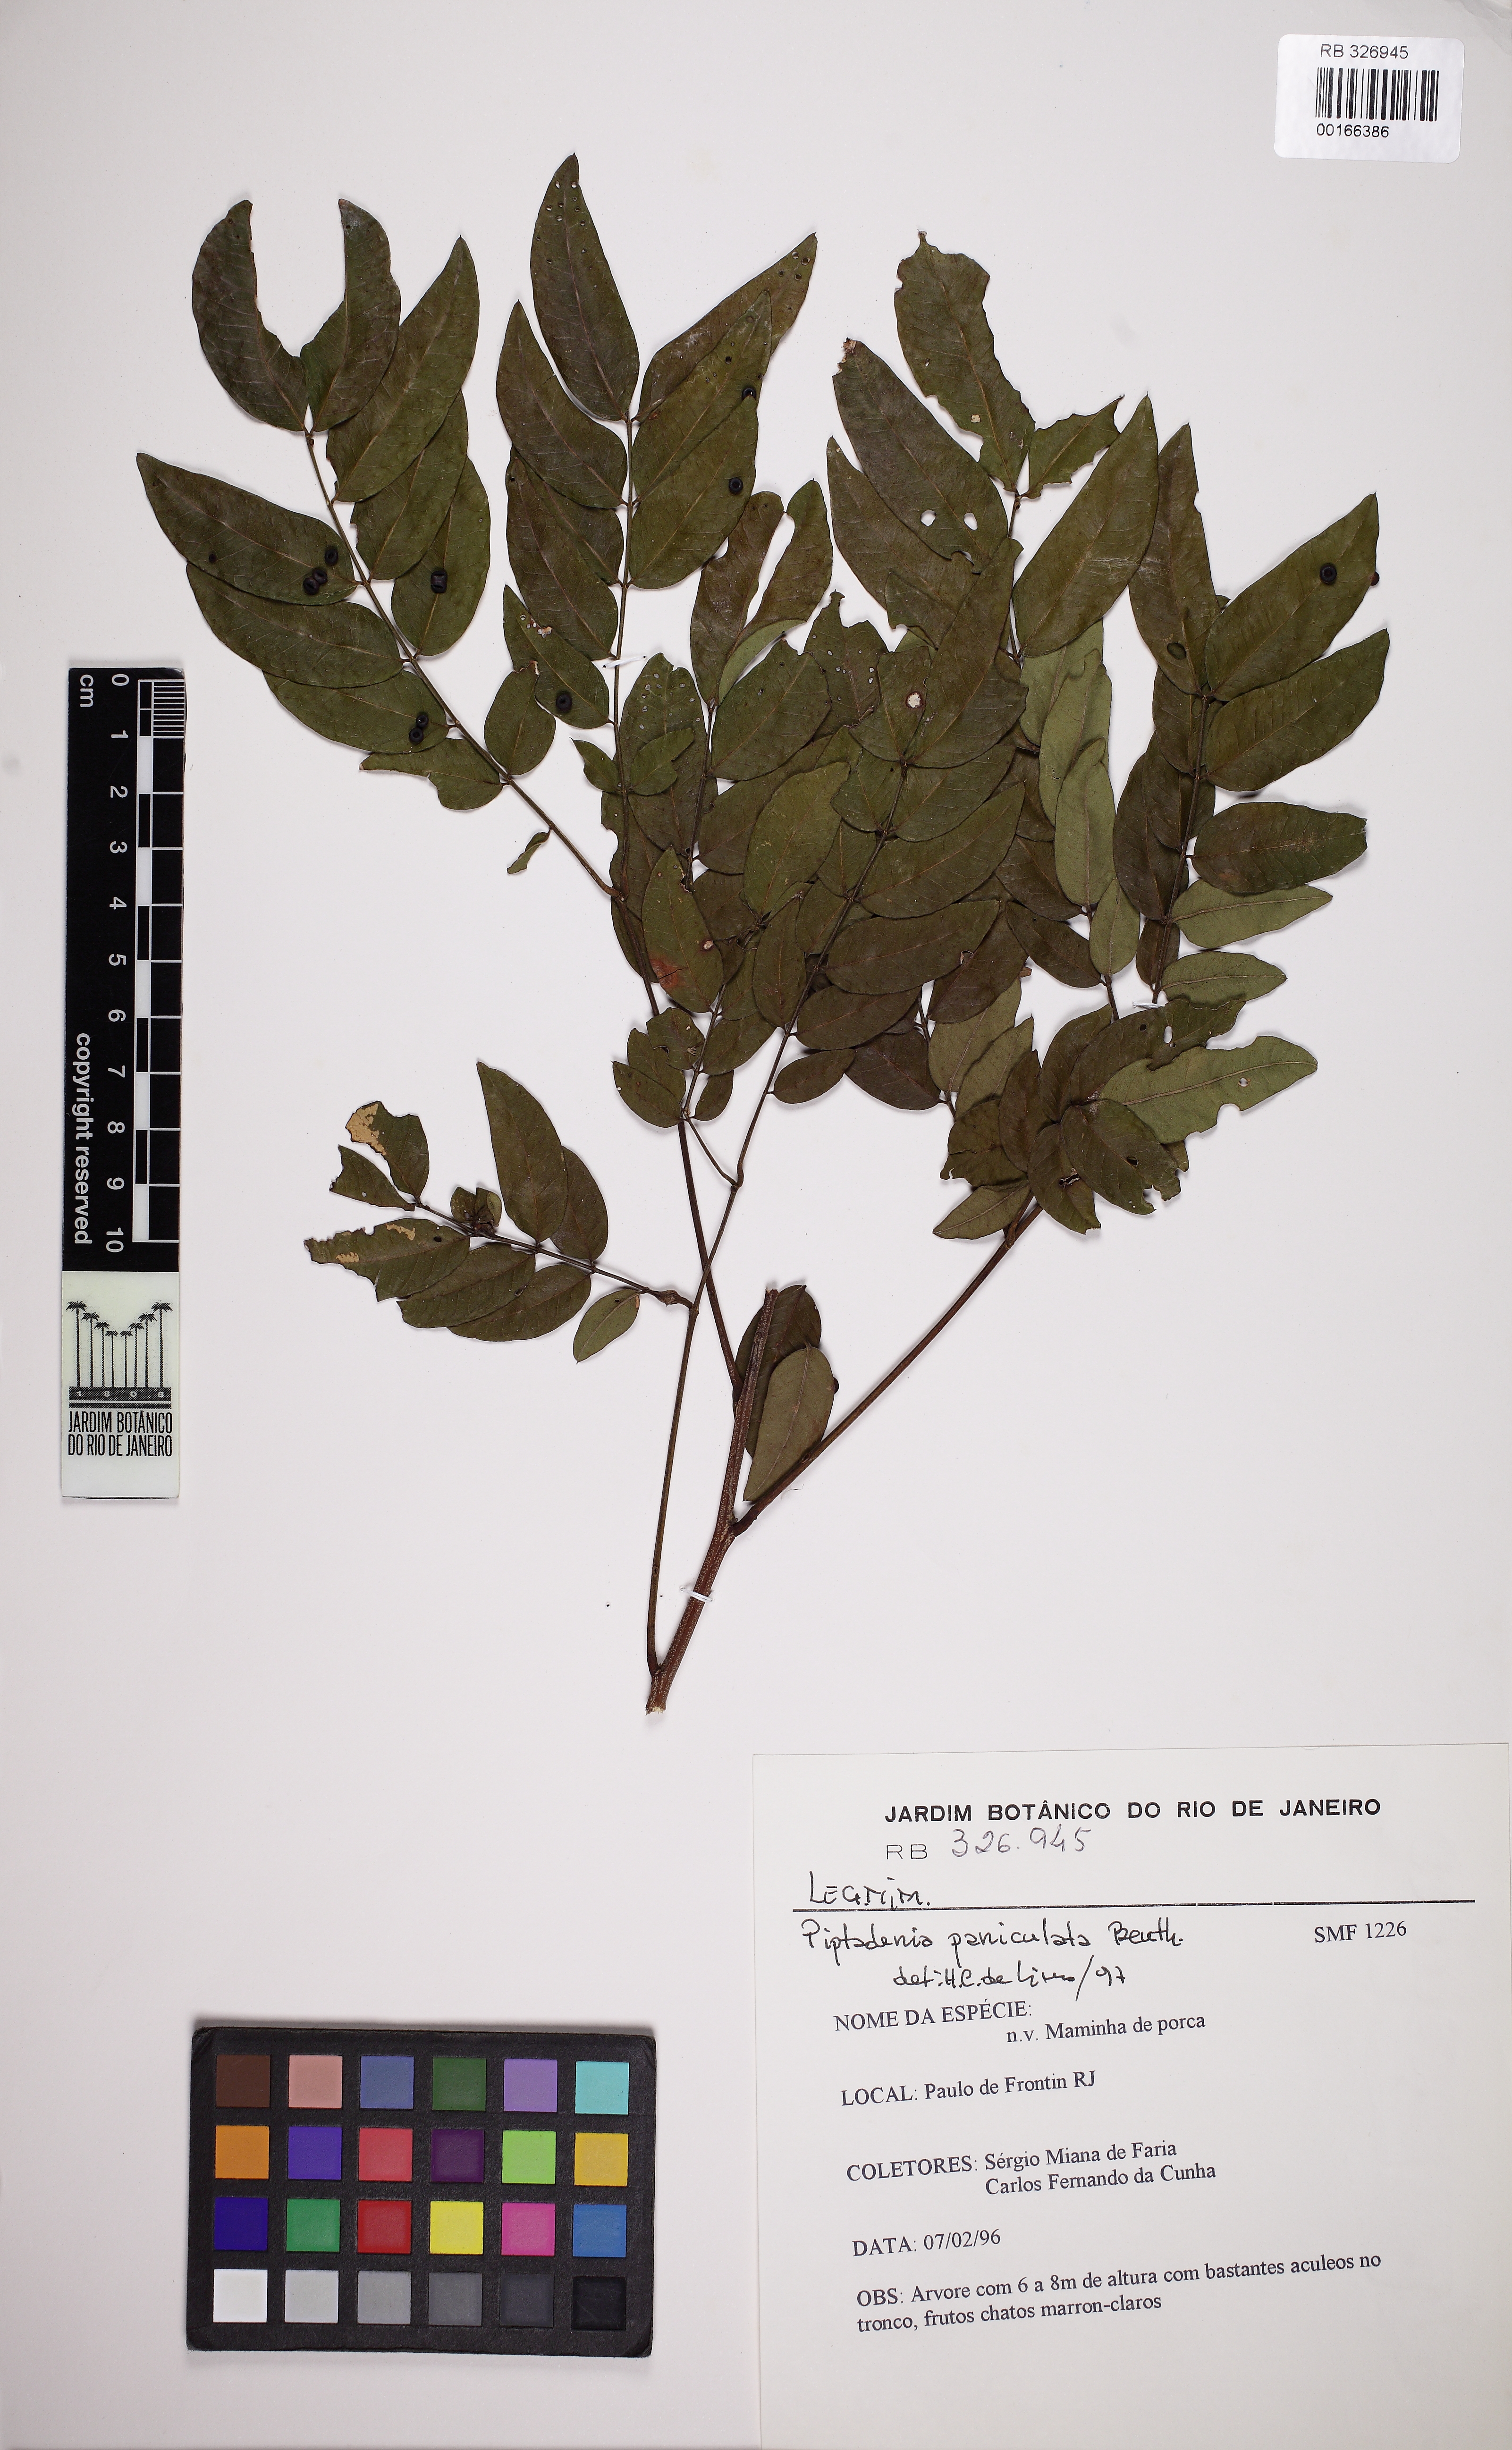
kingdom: Plantae
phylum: Tracheophyta
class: Magnoliopsida
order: Fabales
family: Fabaceae
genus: Piptadenia
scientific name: Piptadenia paniculata
